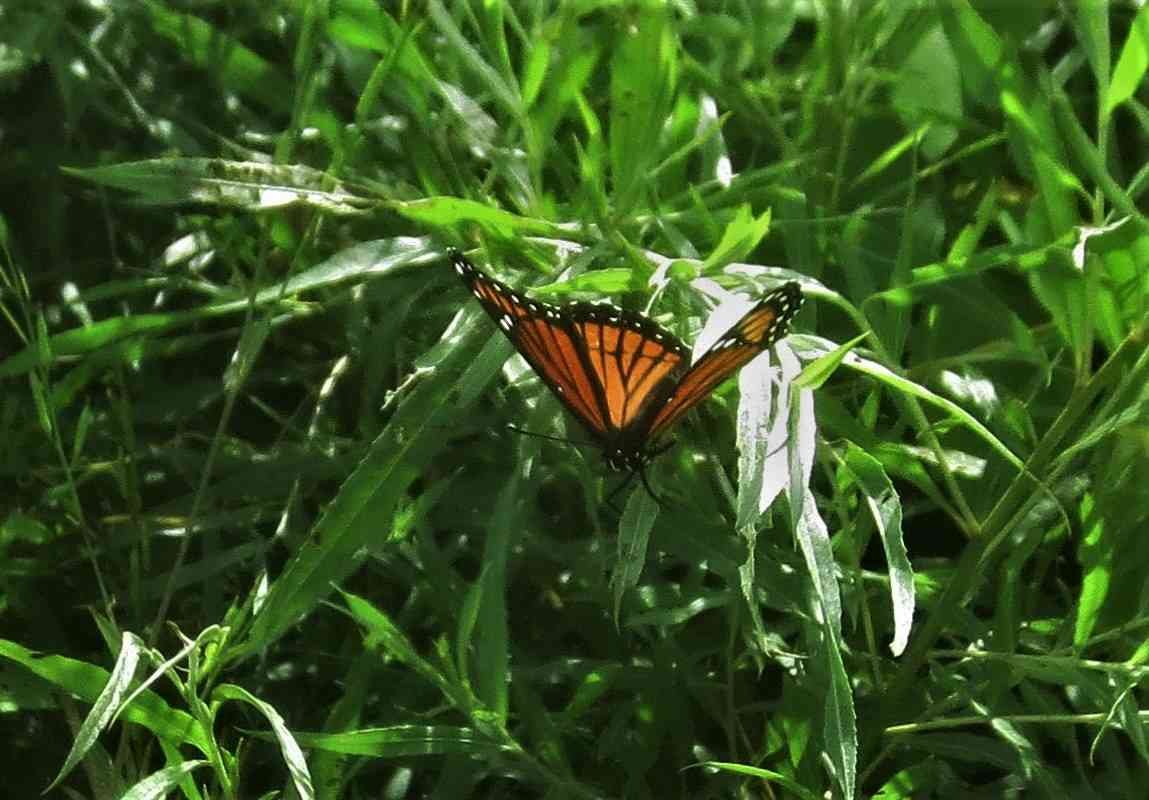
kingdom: Animalia
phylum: Arthropoda
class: Insecta
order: Lepidoptera
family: Nymphalidae
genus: Limenitis
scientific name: Limenitis archippus
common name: Viceroy
